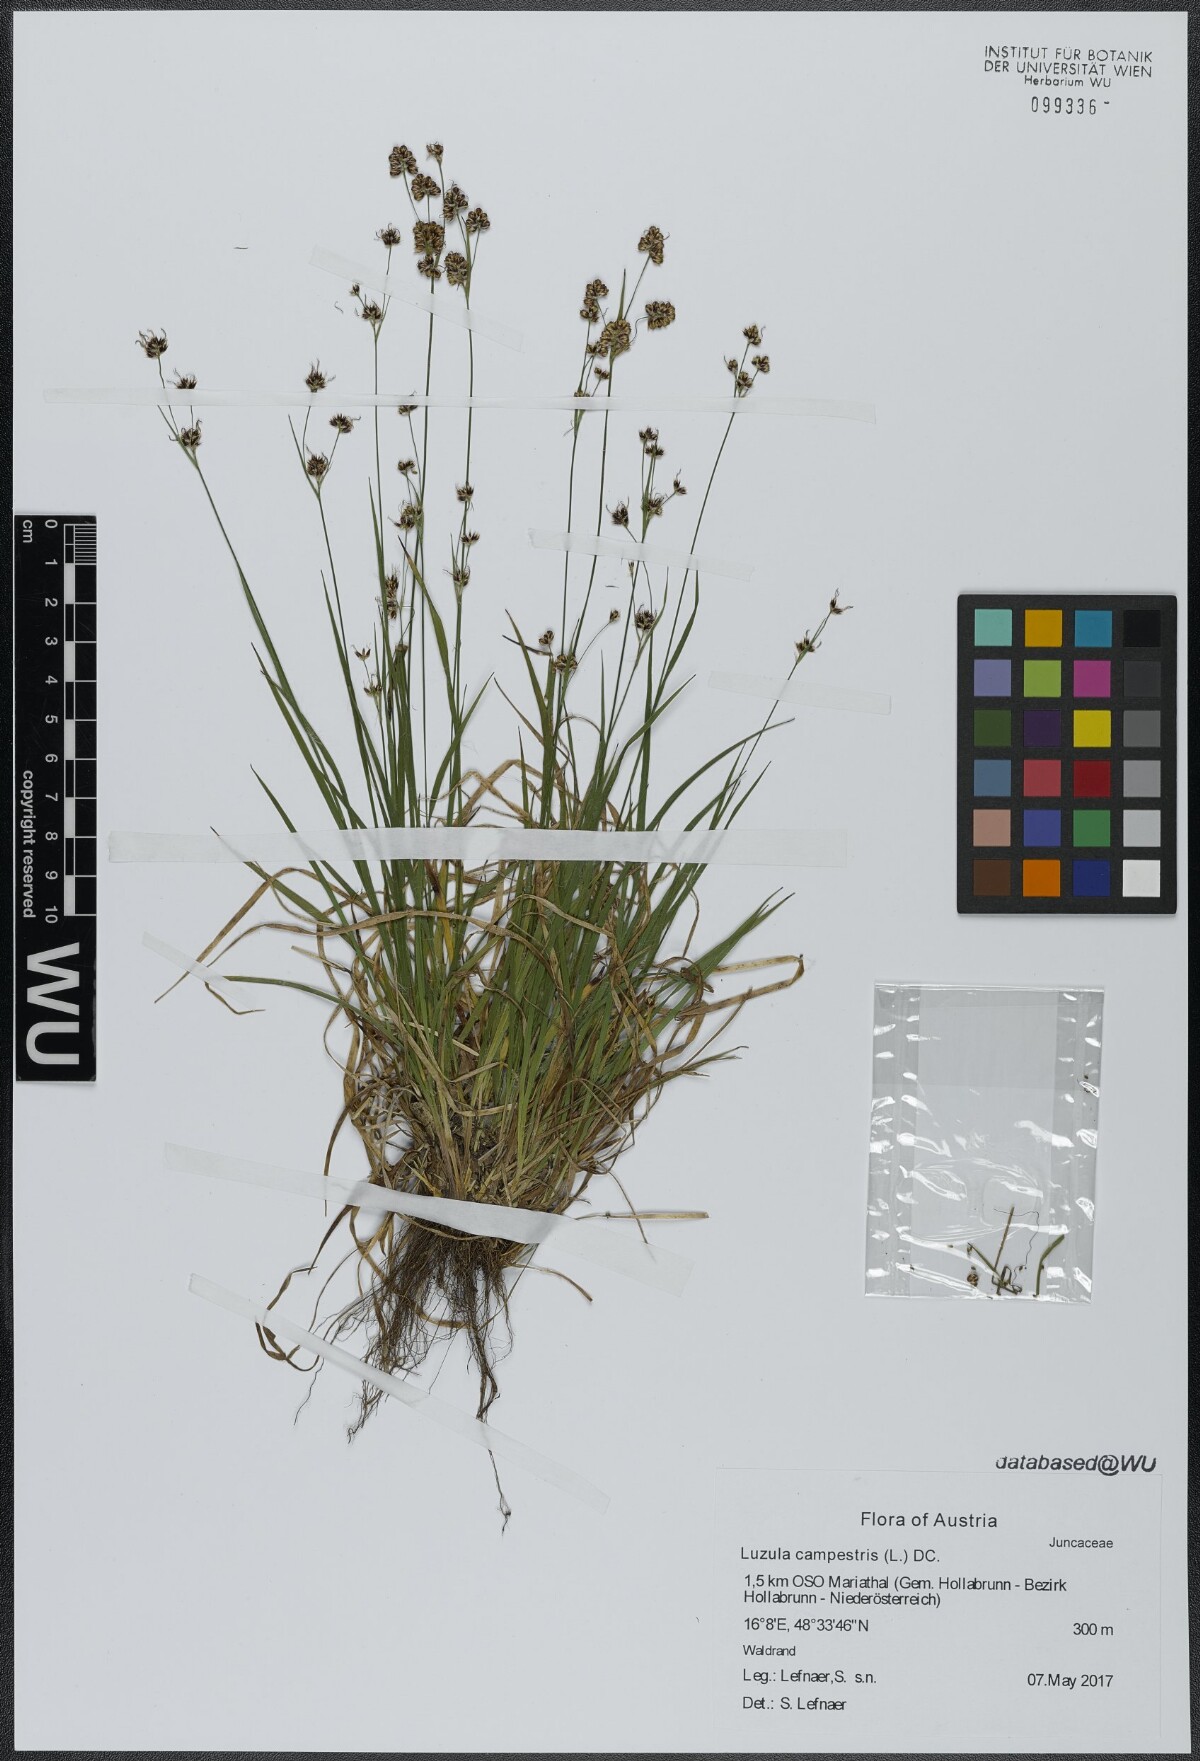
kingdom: Plantae
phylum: Tracheophyta
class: Liliopsida
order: Poales
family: Juncaceae
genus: Luzula
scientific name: Luzula campestris
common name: Field wood-rush
